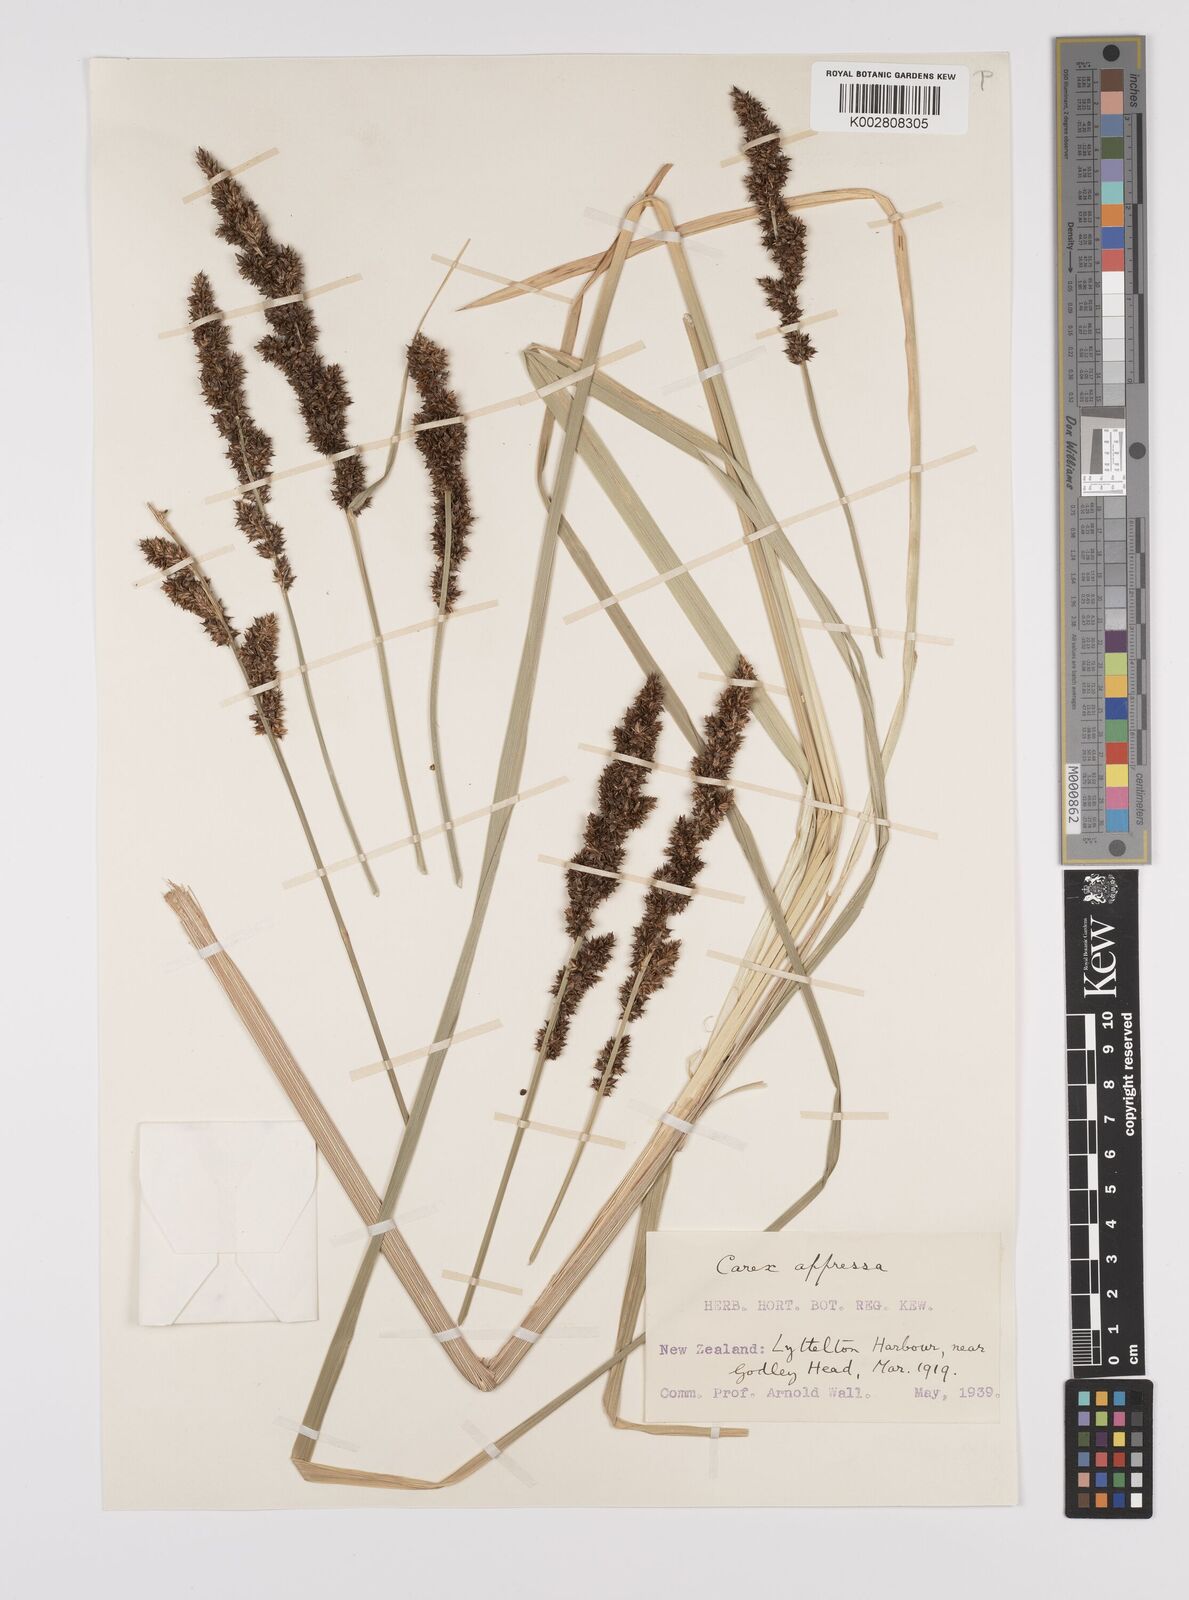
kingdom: Plantae
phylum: Tracheophyta
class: Liliopsida
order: Poales
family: Cyperaceae
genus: Carex
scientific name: Carex appressa
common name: Tussock sedge
